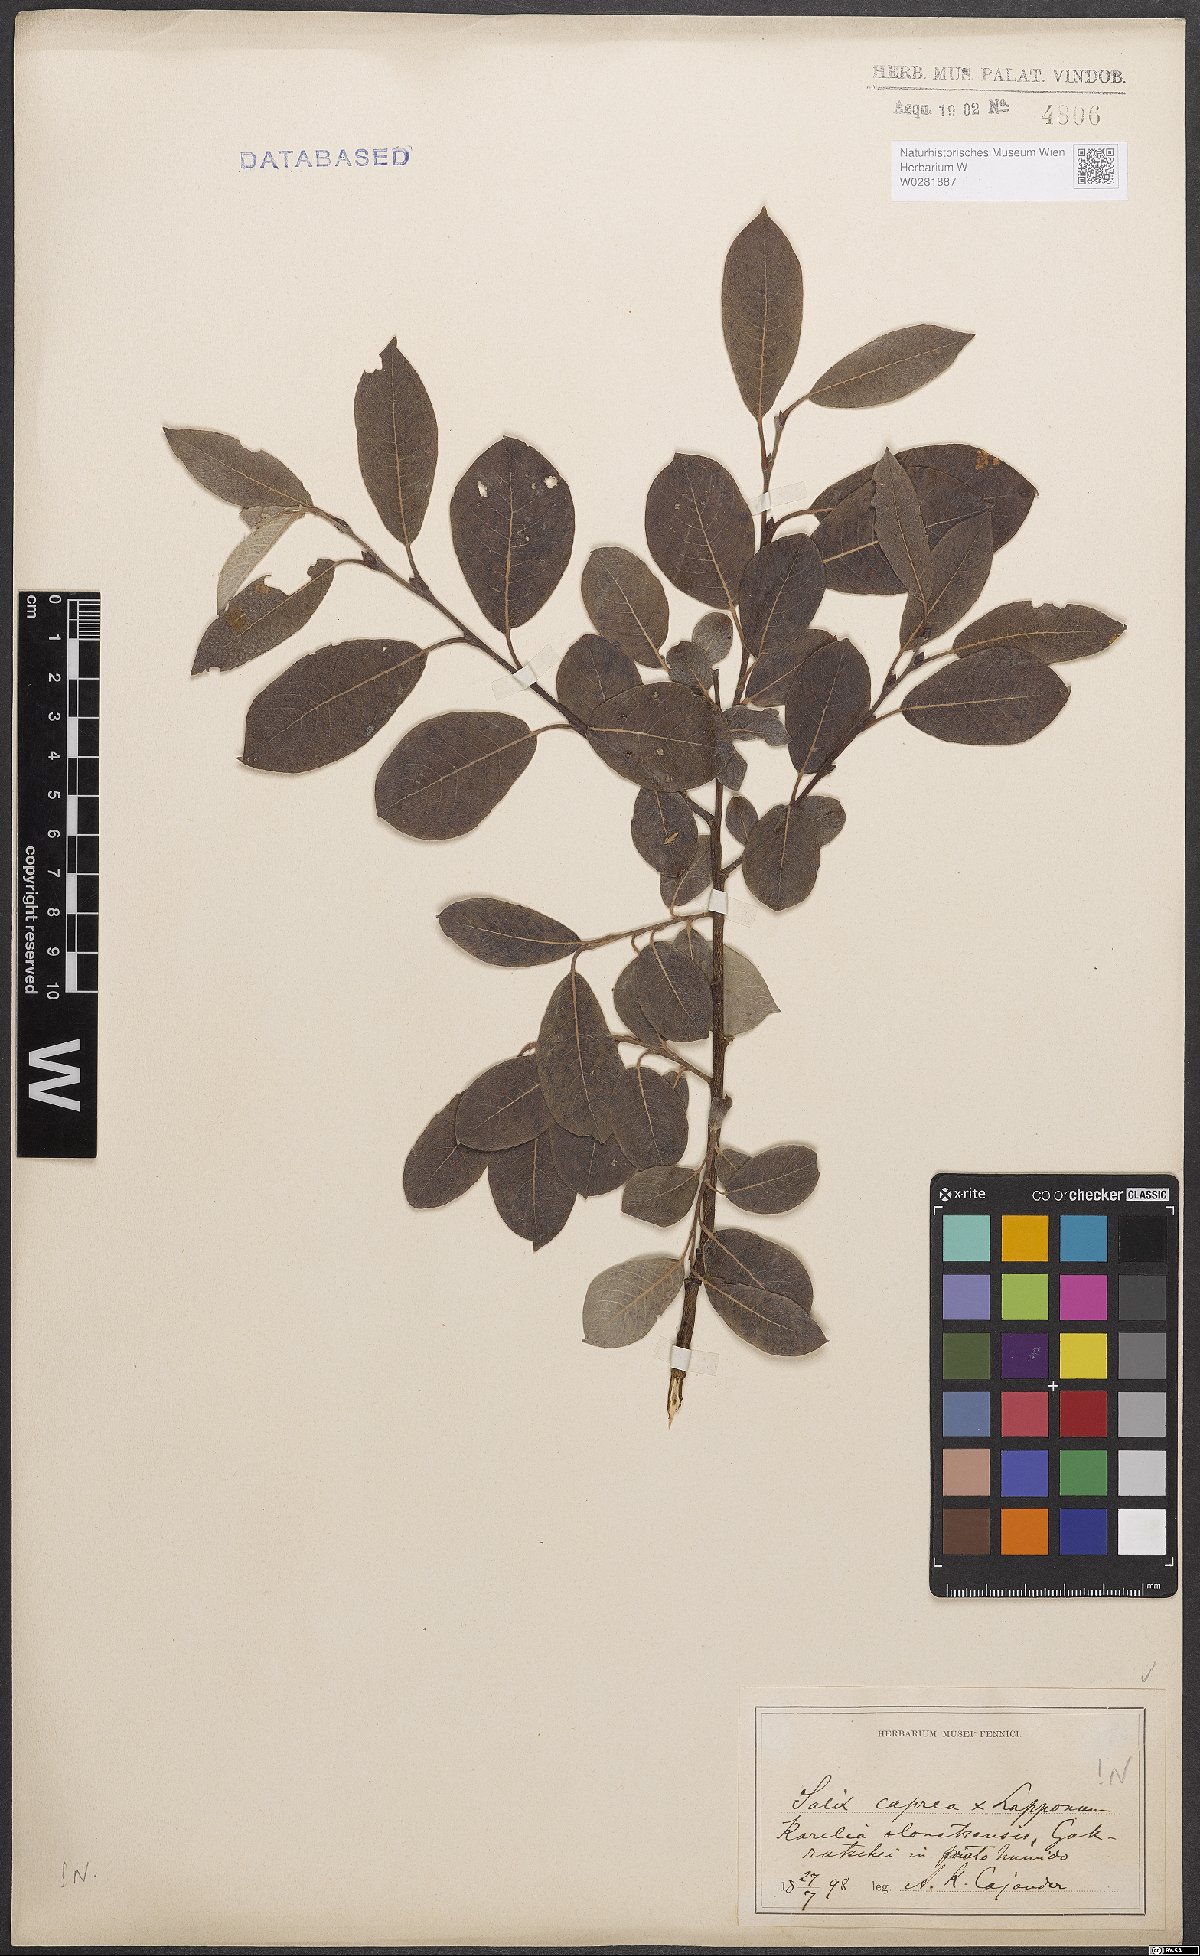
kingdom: Plantae
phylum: Tracheophyta
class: Magnoliopsida
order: Malpighiales
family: Salicaceae
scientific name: Salicaceae
